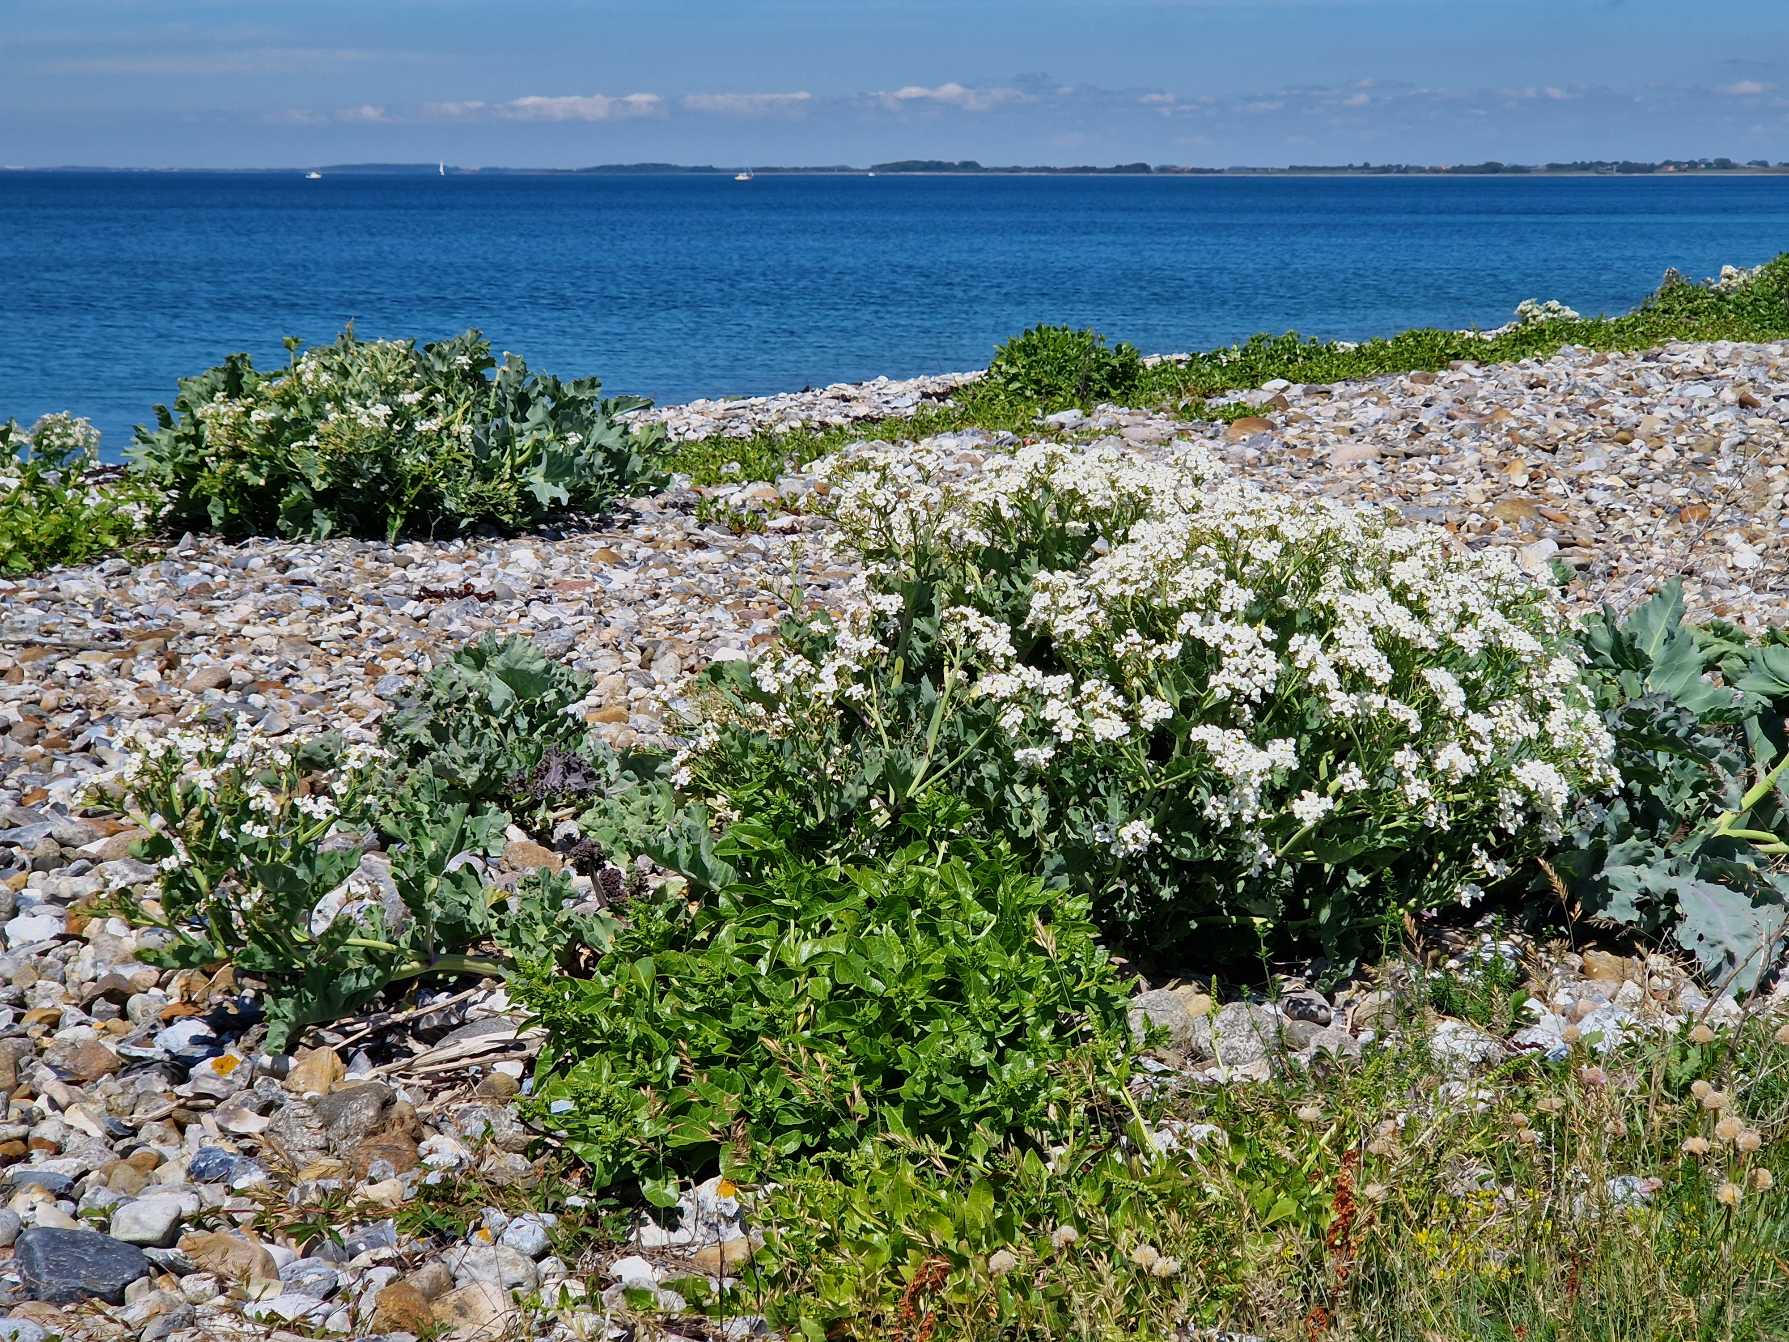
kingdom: Plantae
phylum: Tracheophyta
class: Magnoliopsida
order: Brassicales
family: Brassicaceae
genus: Crambe
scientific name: Crambe maritima
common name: Strandkål
